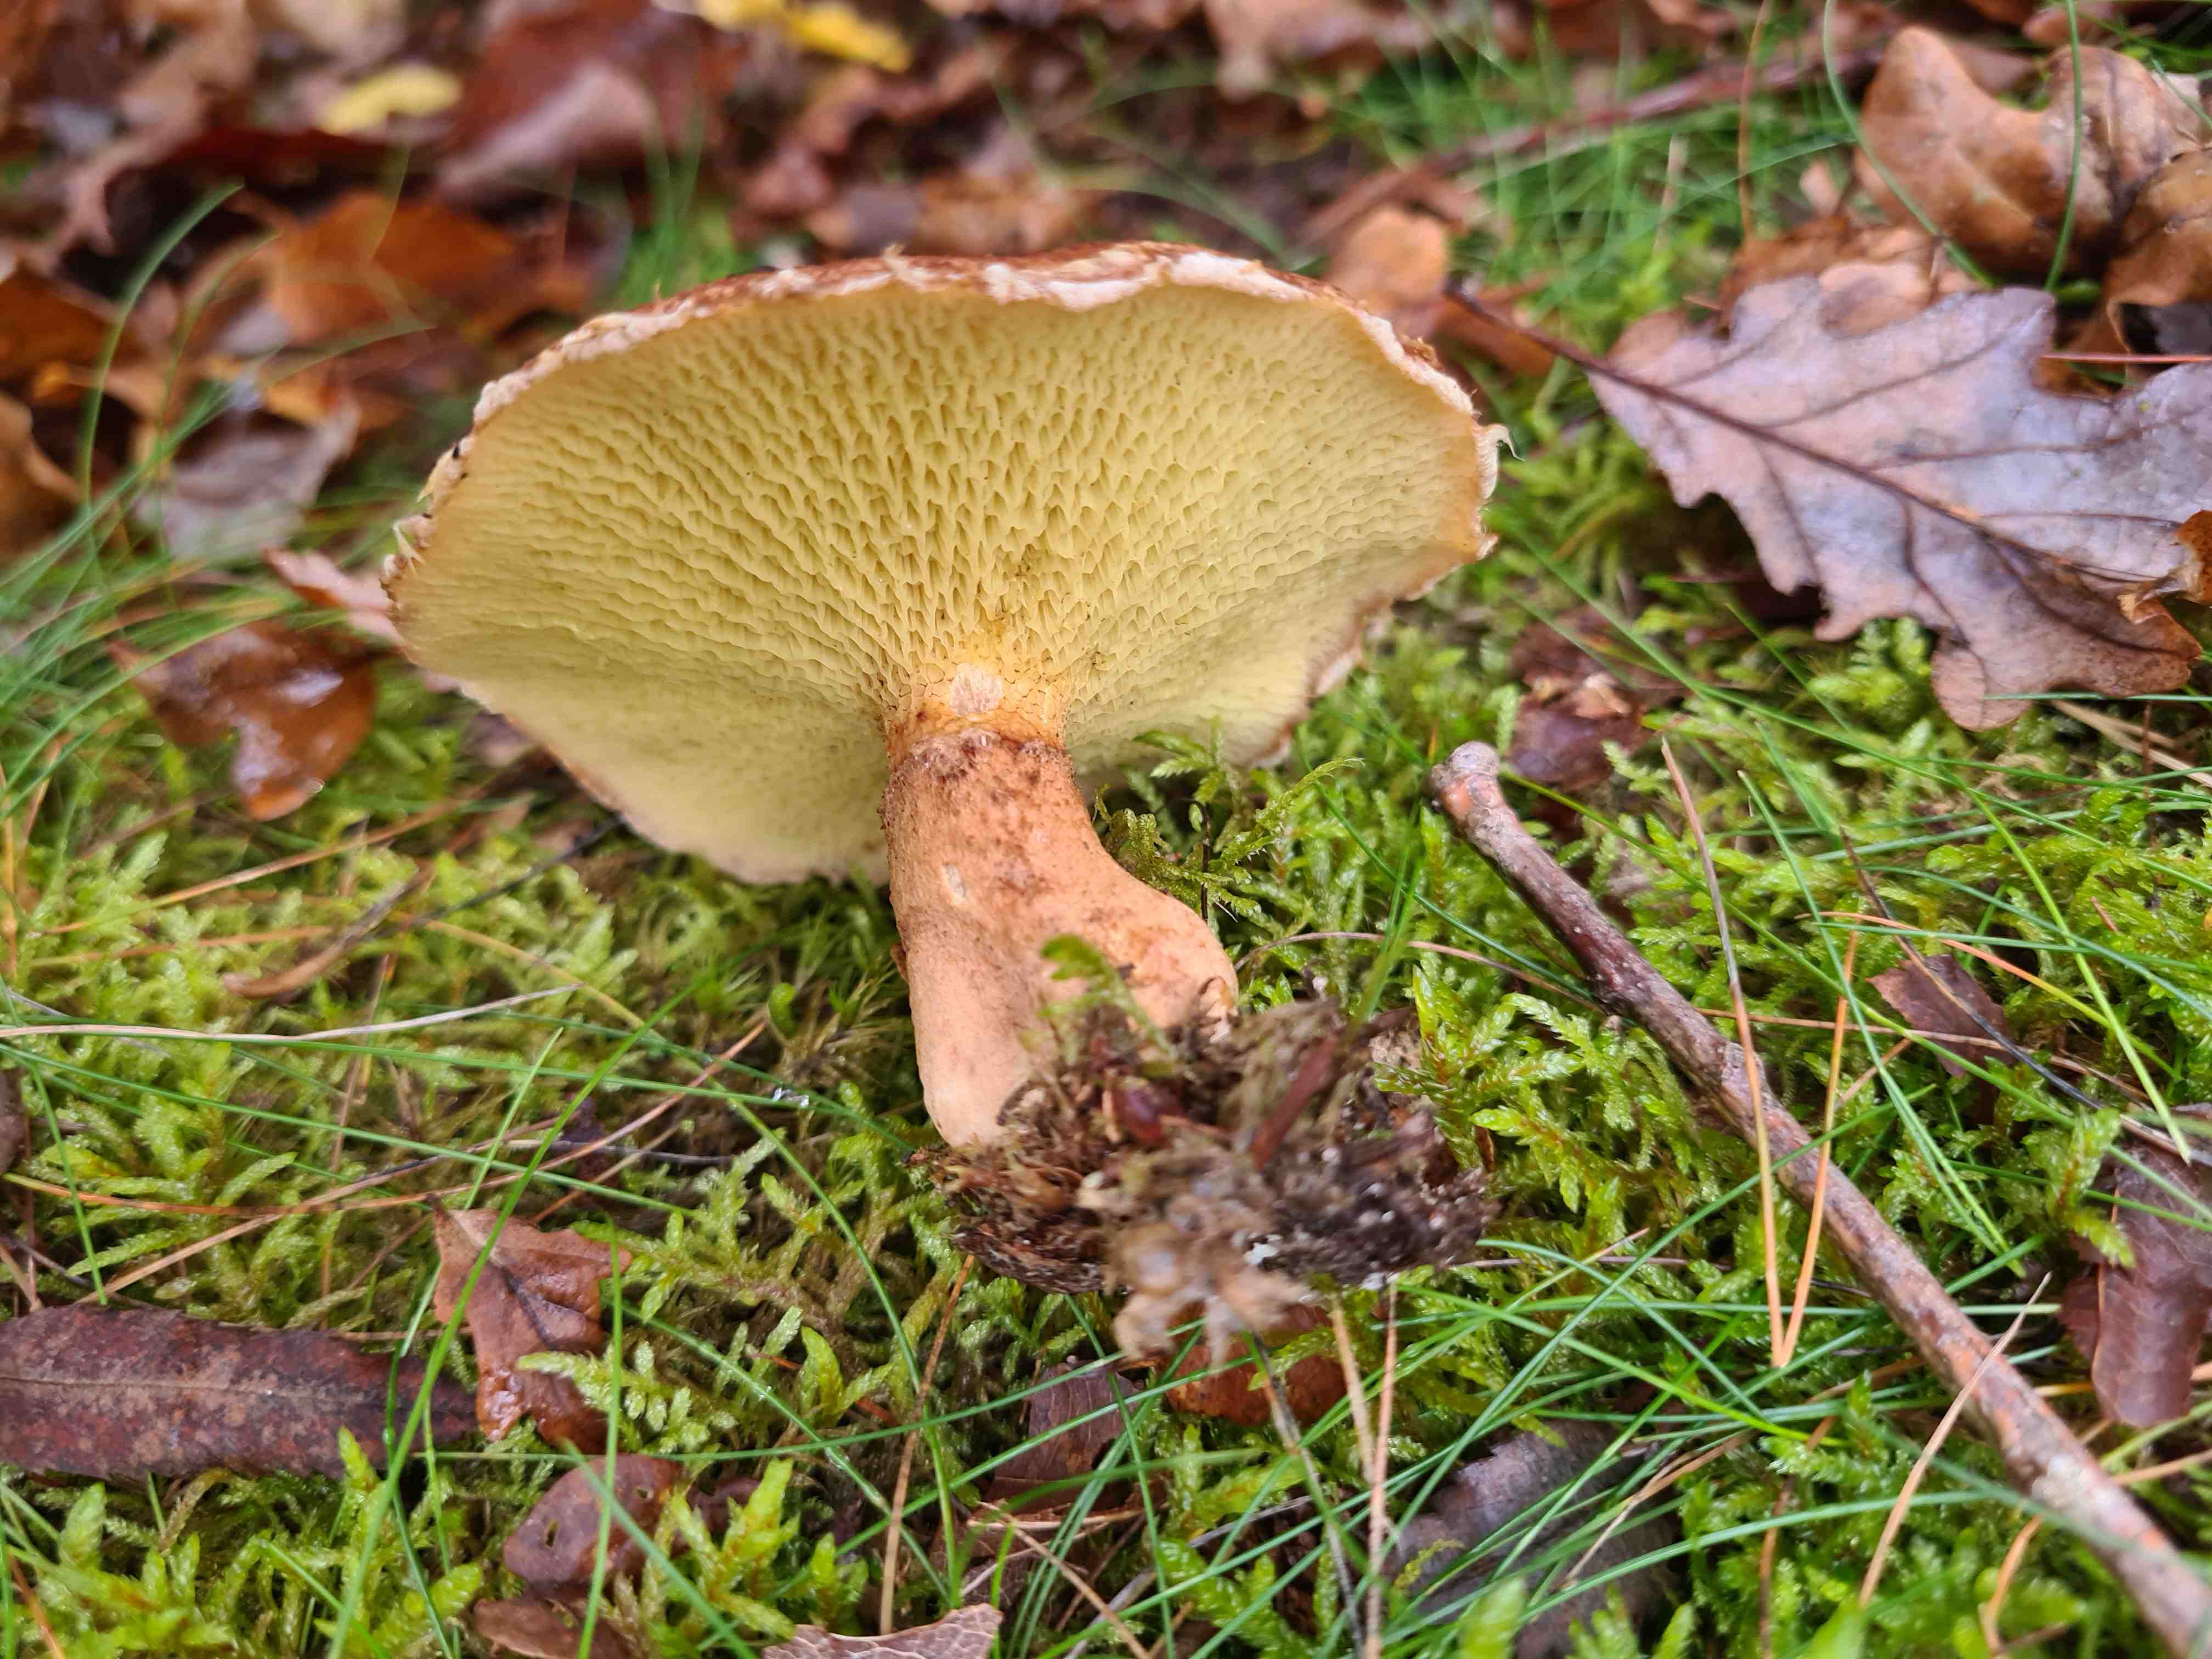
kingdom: Fungi
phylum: Basidiomycota
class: Agaricomycetes
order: Boletales
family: Suillaceae
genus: Suillus
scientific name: Suillus cavipes
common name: hulstokket slimrørhat
